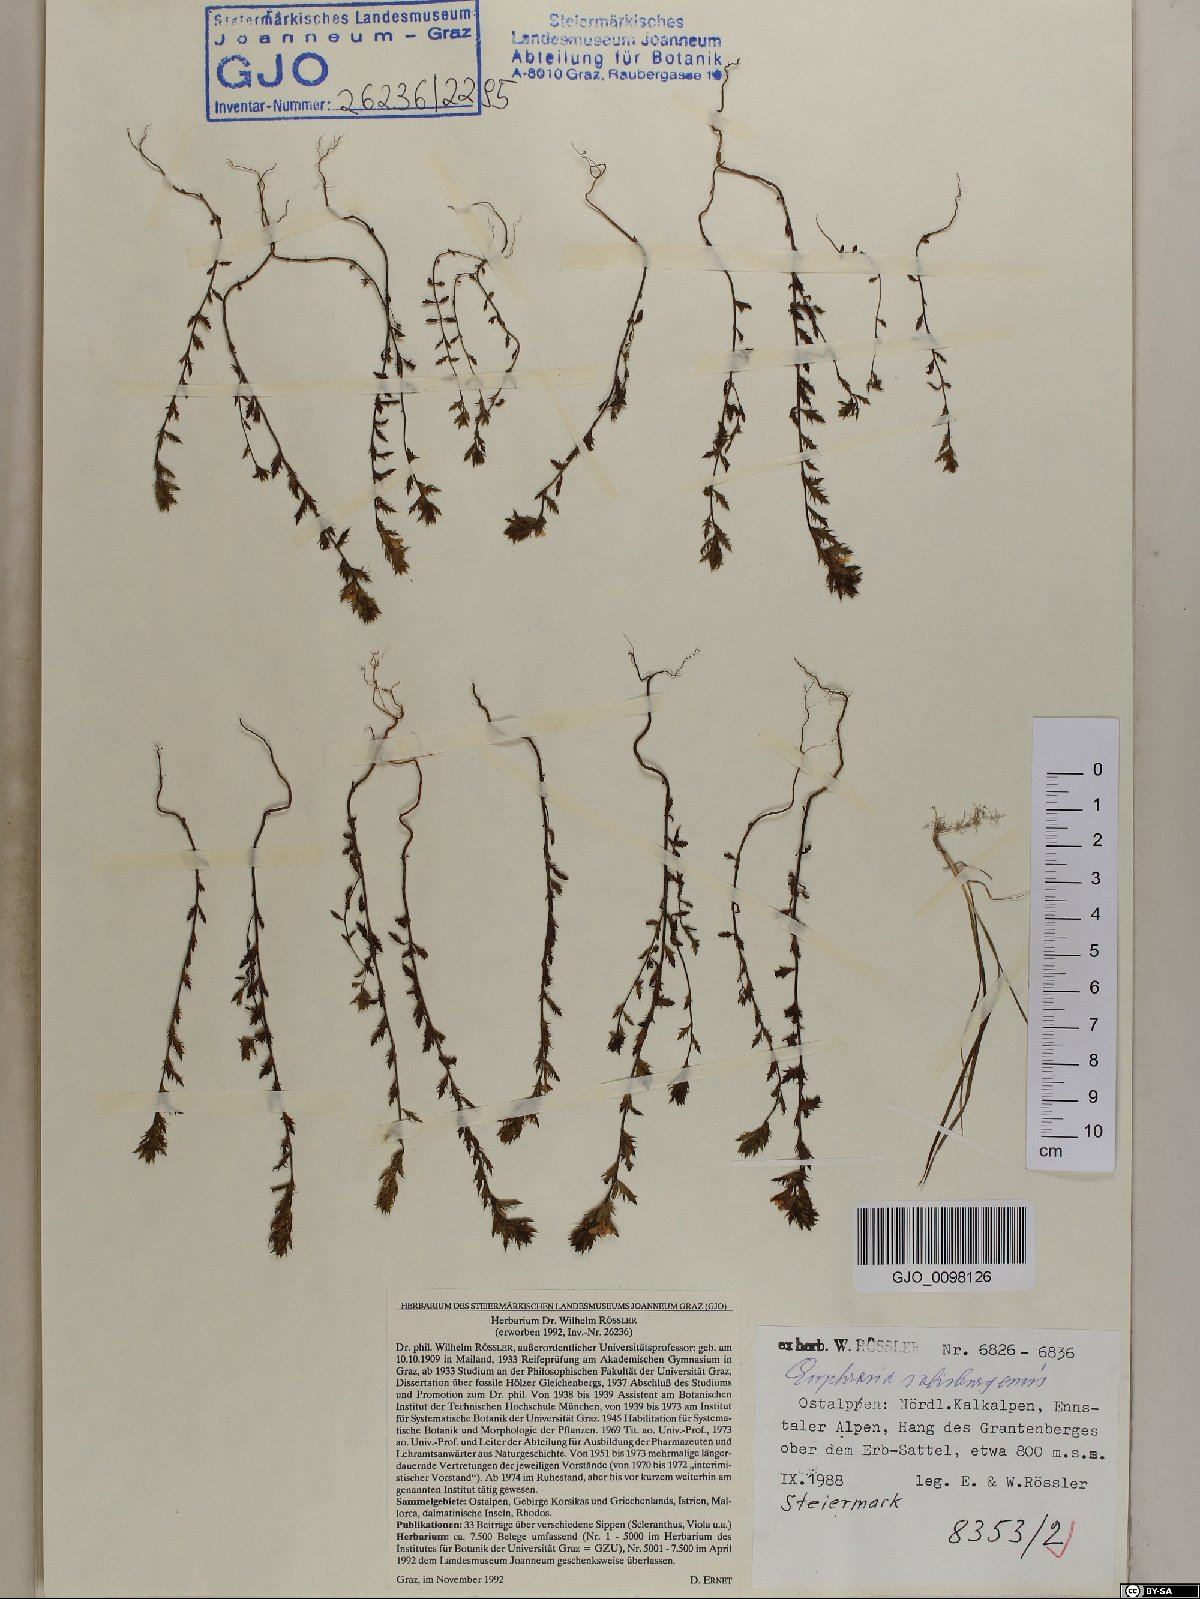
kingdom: Plantae
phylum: Tracheophyta
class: Magnoliopsida
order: Lamiales
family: Orobanchaceae
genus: Euphrasia
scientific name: Euphrasia salisburgensis
